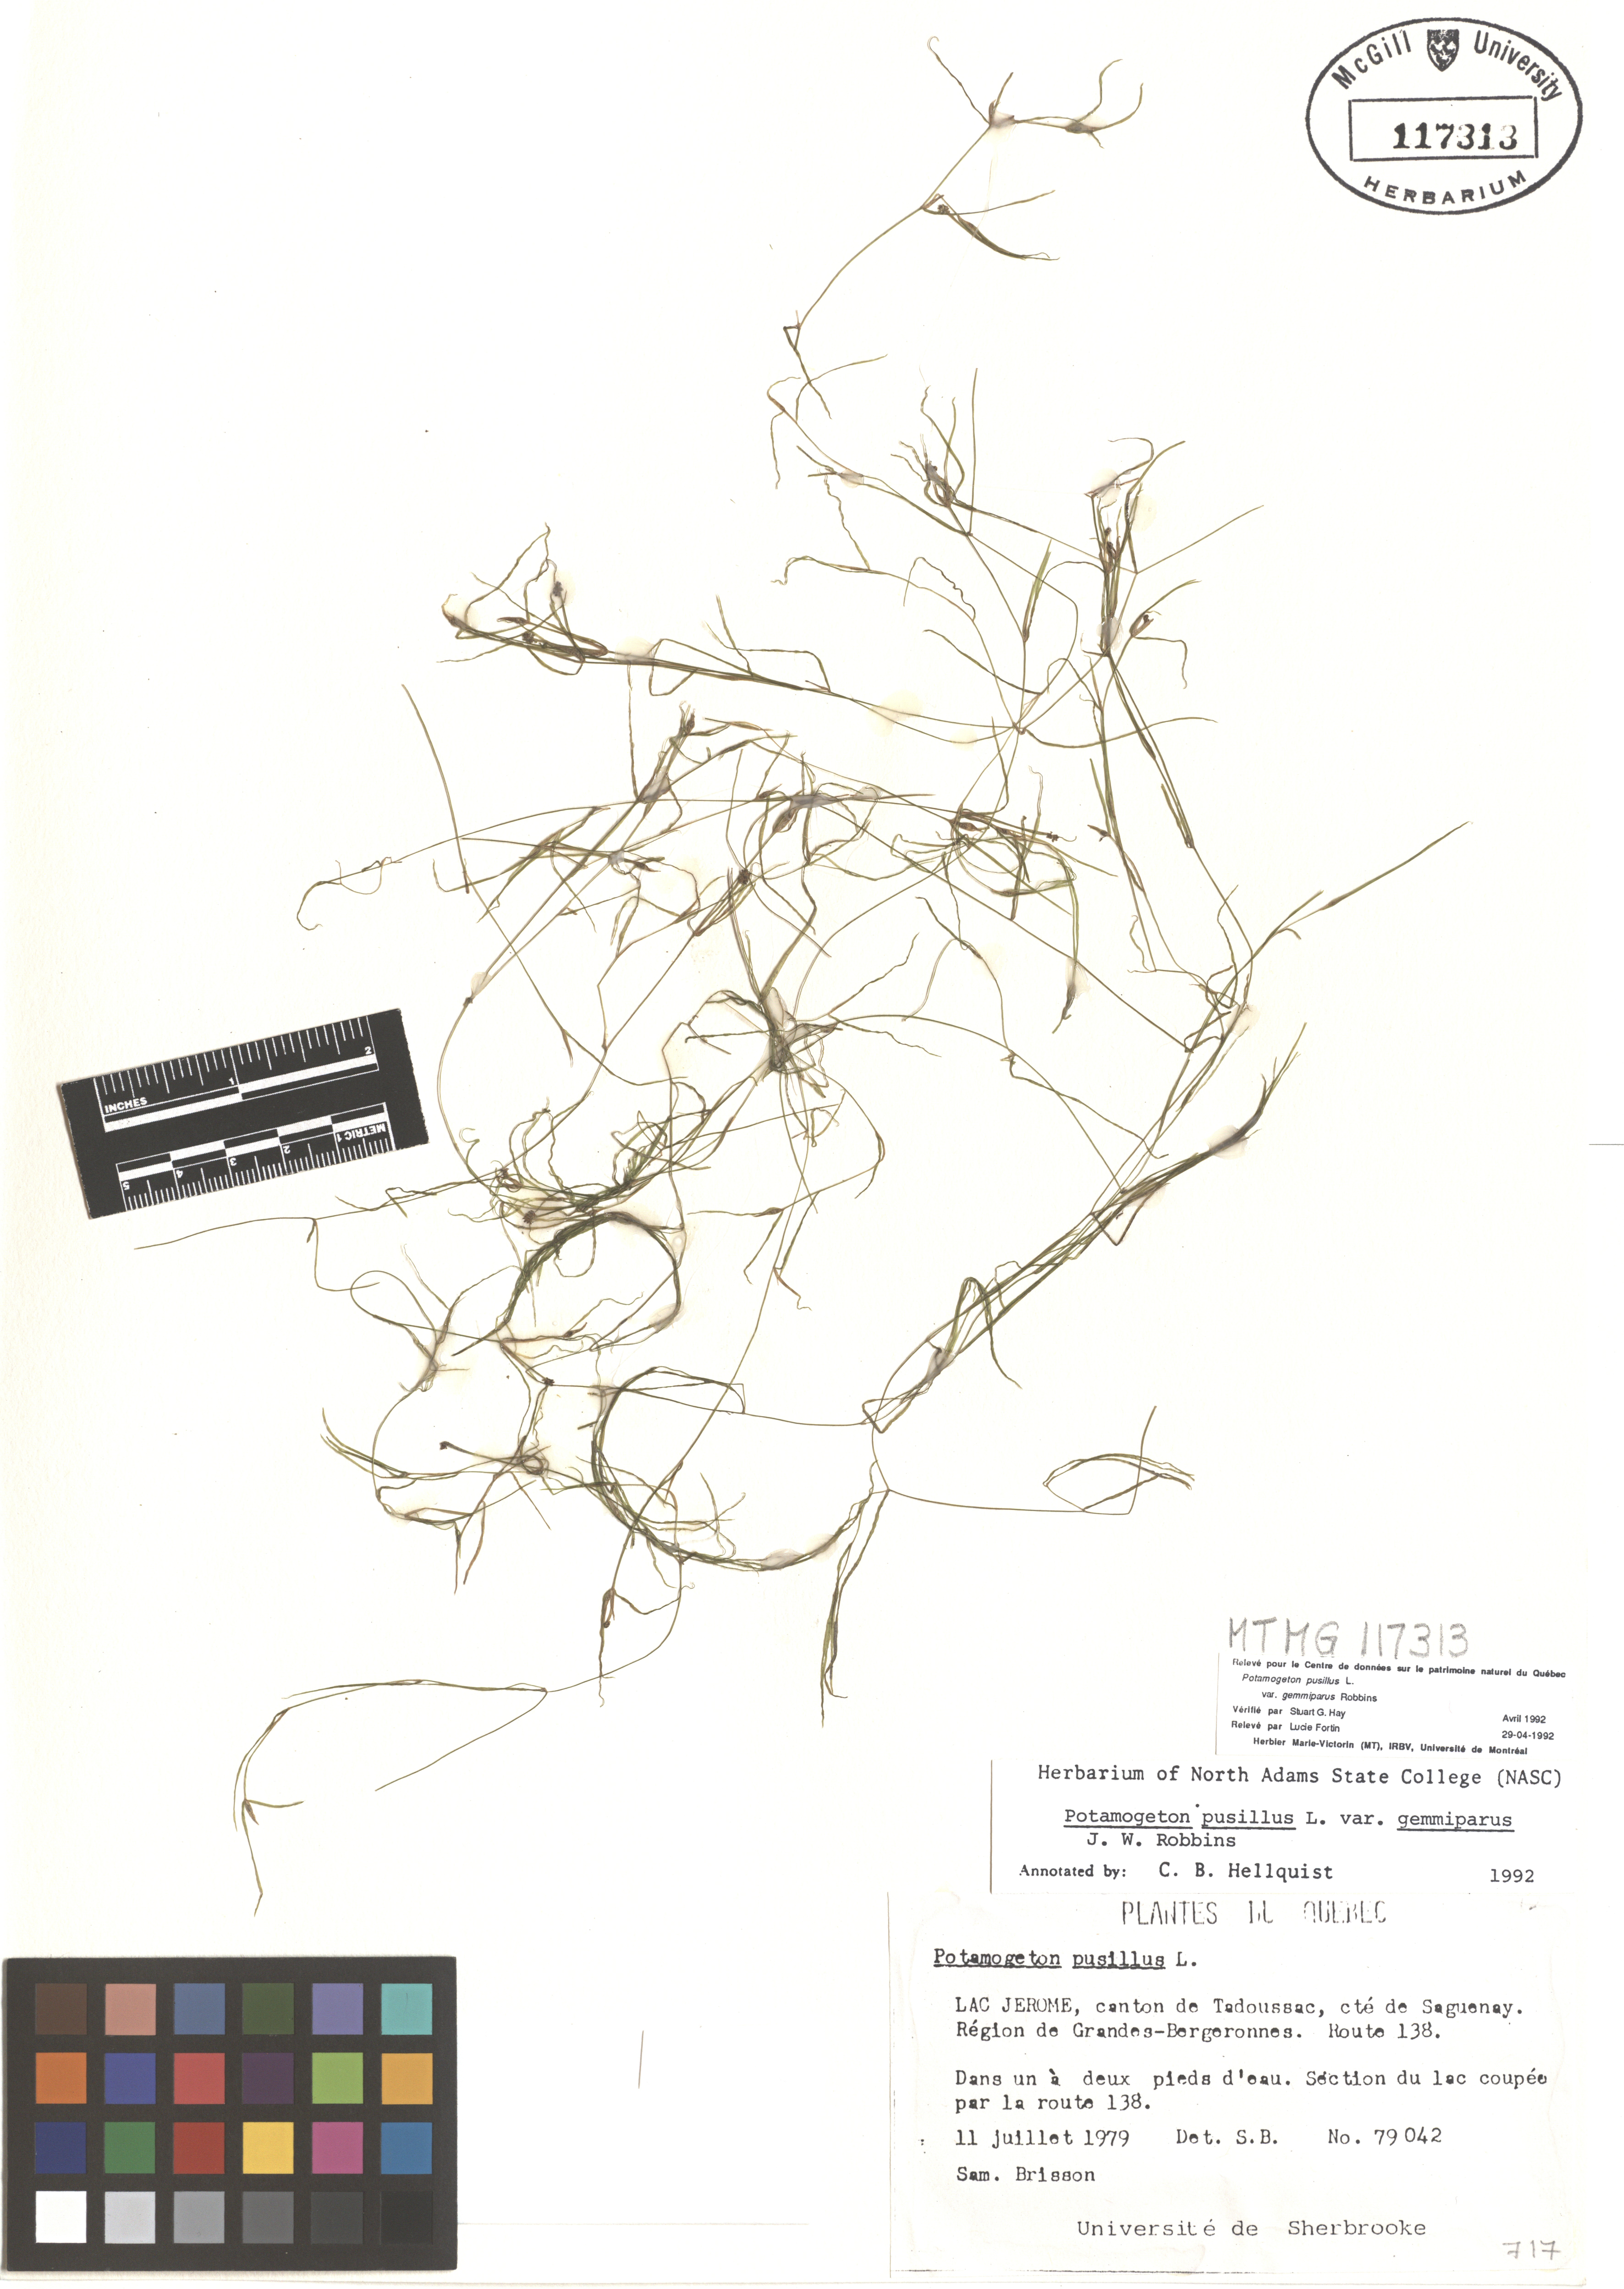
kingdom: Plantae
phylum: Tracheophyta
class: Liliopsida
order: Poales
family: Cyperaceae
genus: Carex
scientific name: Carex arctata
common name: Black sedge
